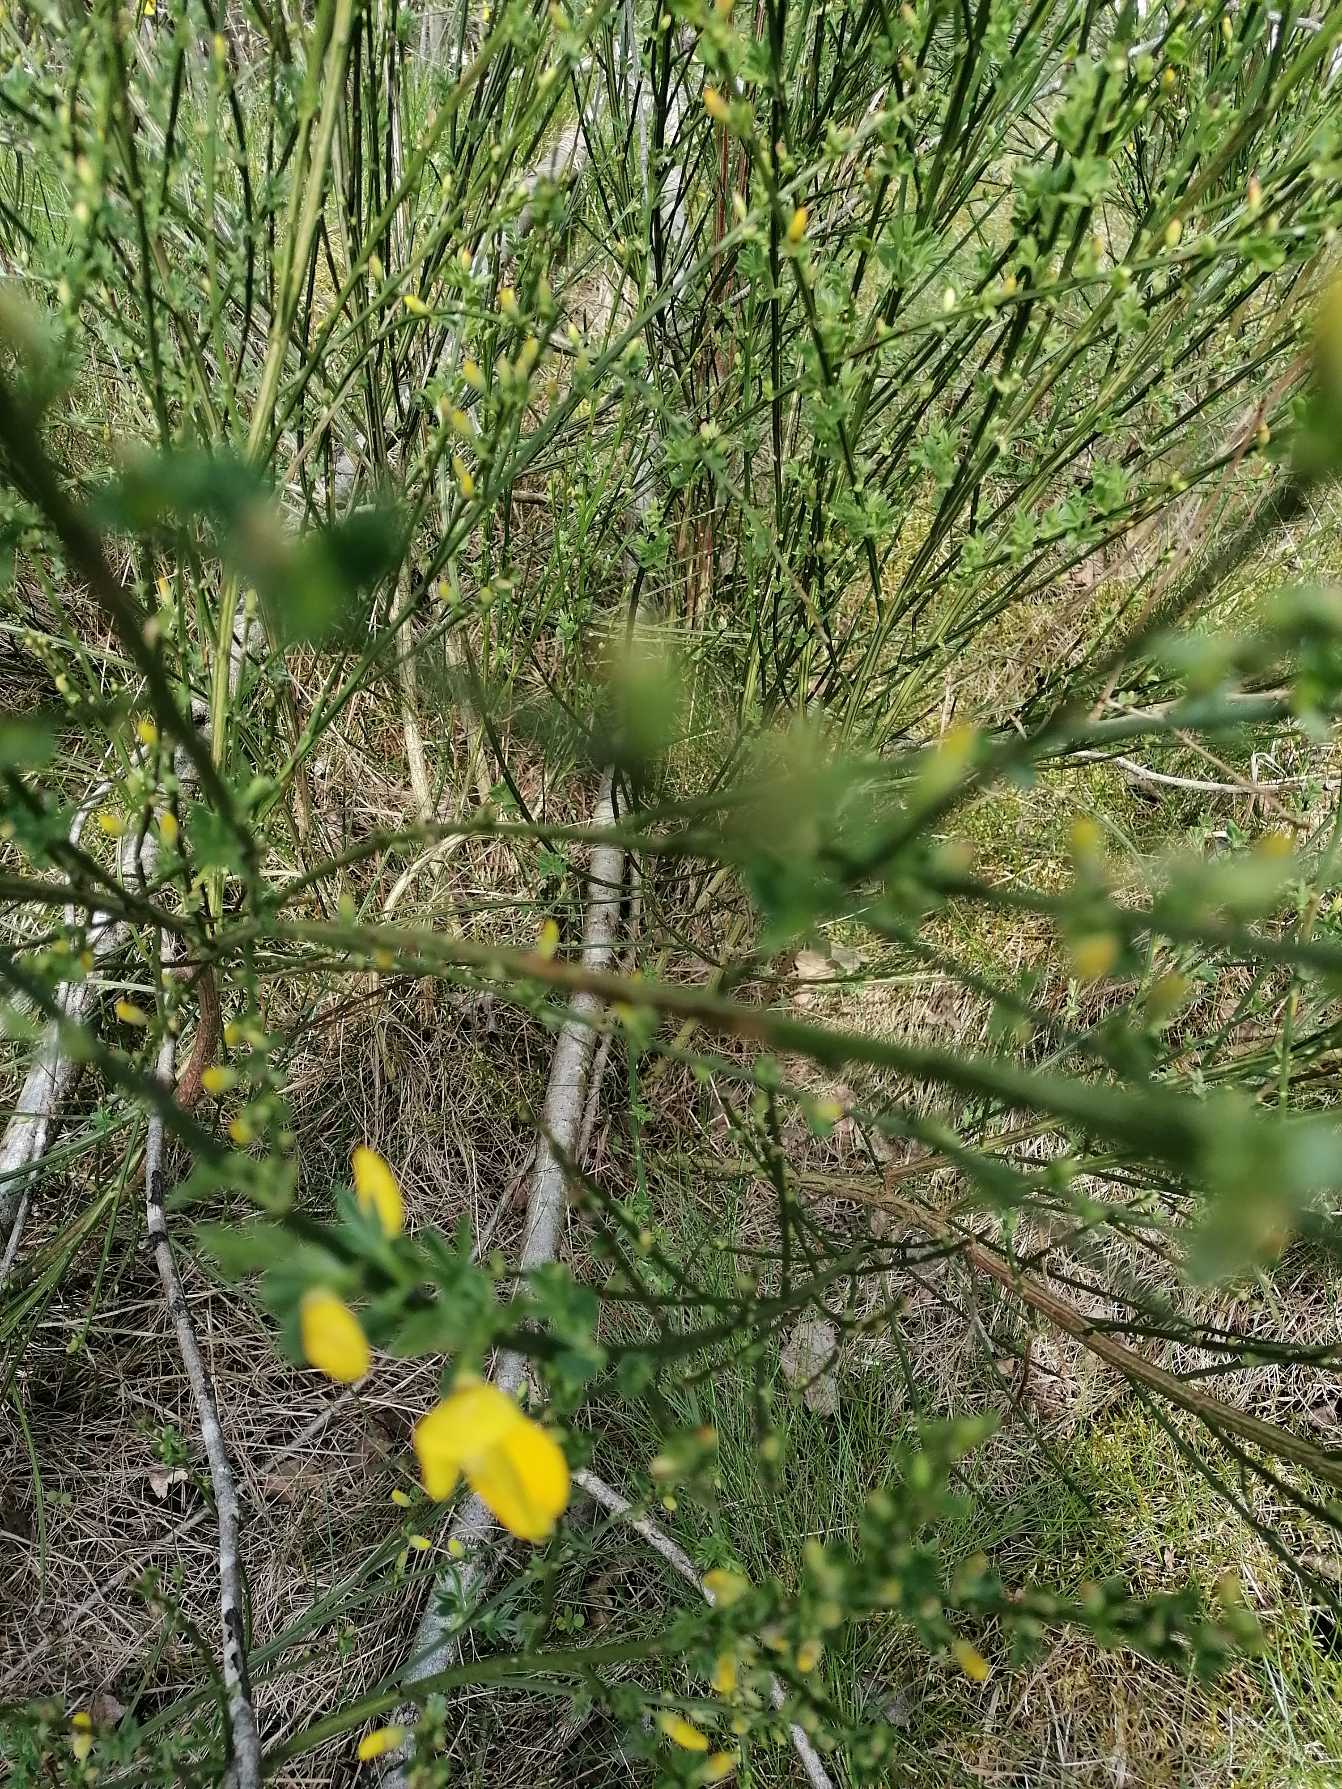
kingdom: Plantae
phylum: Tracheophyta
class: Magnoliopsida
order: Fabales
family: Fabaceae
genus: Cytisus
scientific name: Cytisus scoparius
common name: Almindelig gyvel
